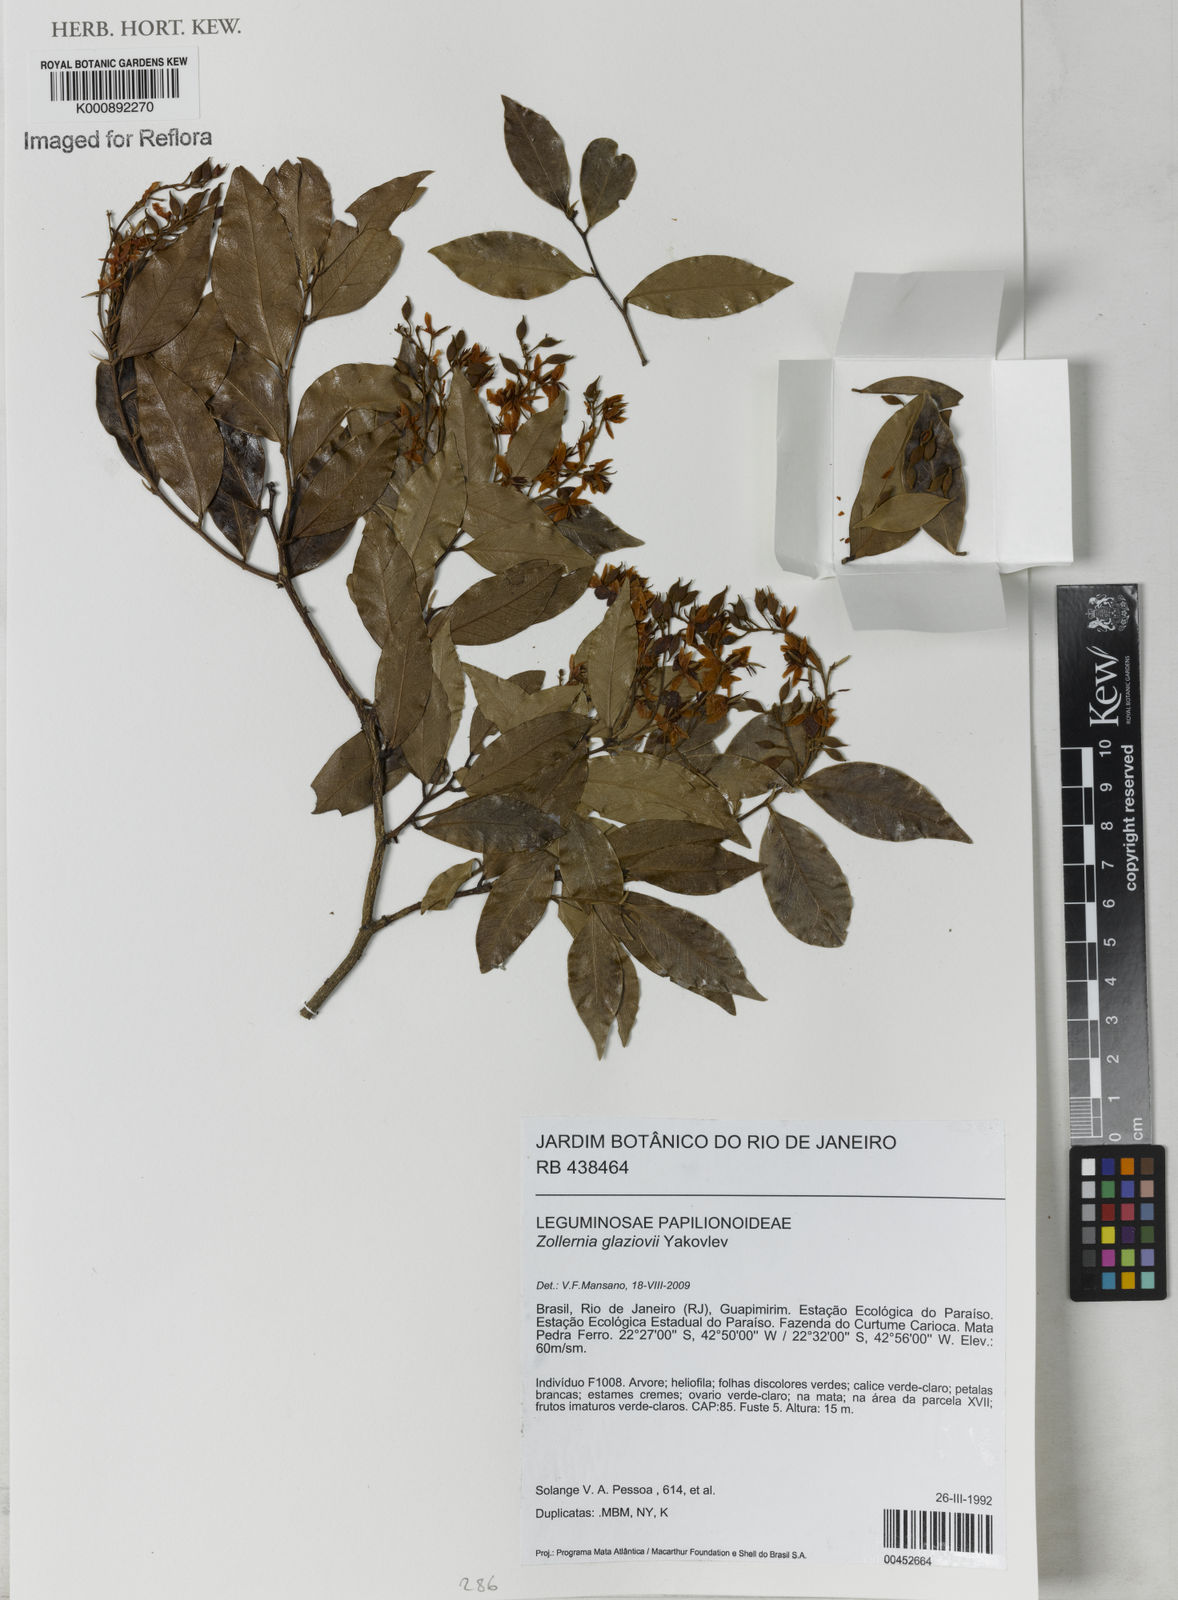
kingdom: Plantae
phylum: Tracheophyta
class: Magnoliopsida
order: Fabales
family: Fabaceae
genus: Zollernia
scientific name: Zollernia glaziovii
